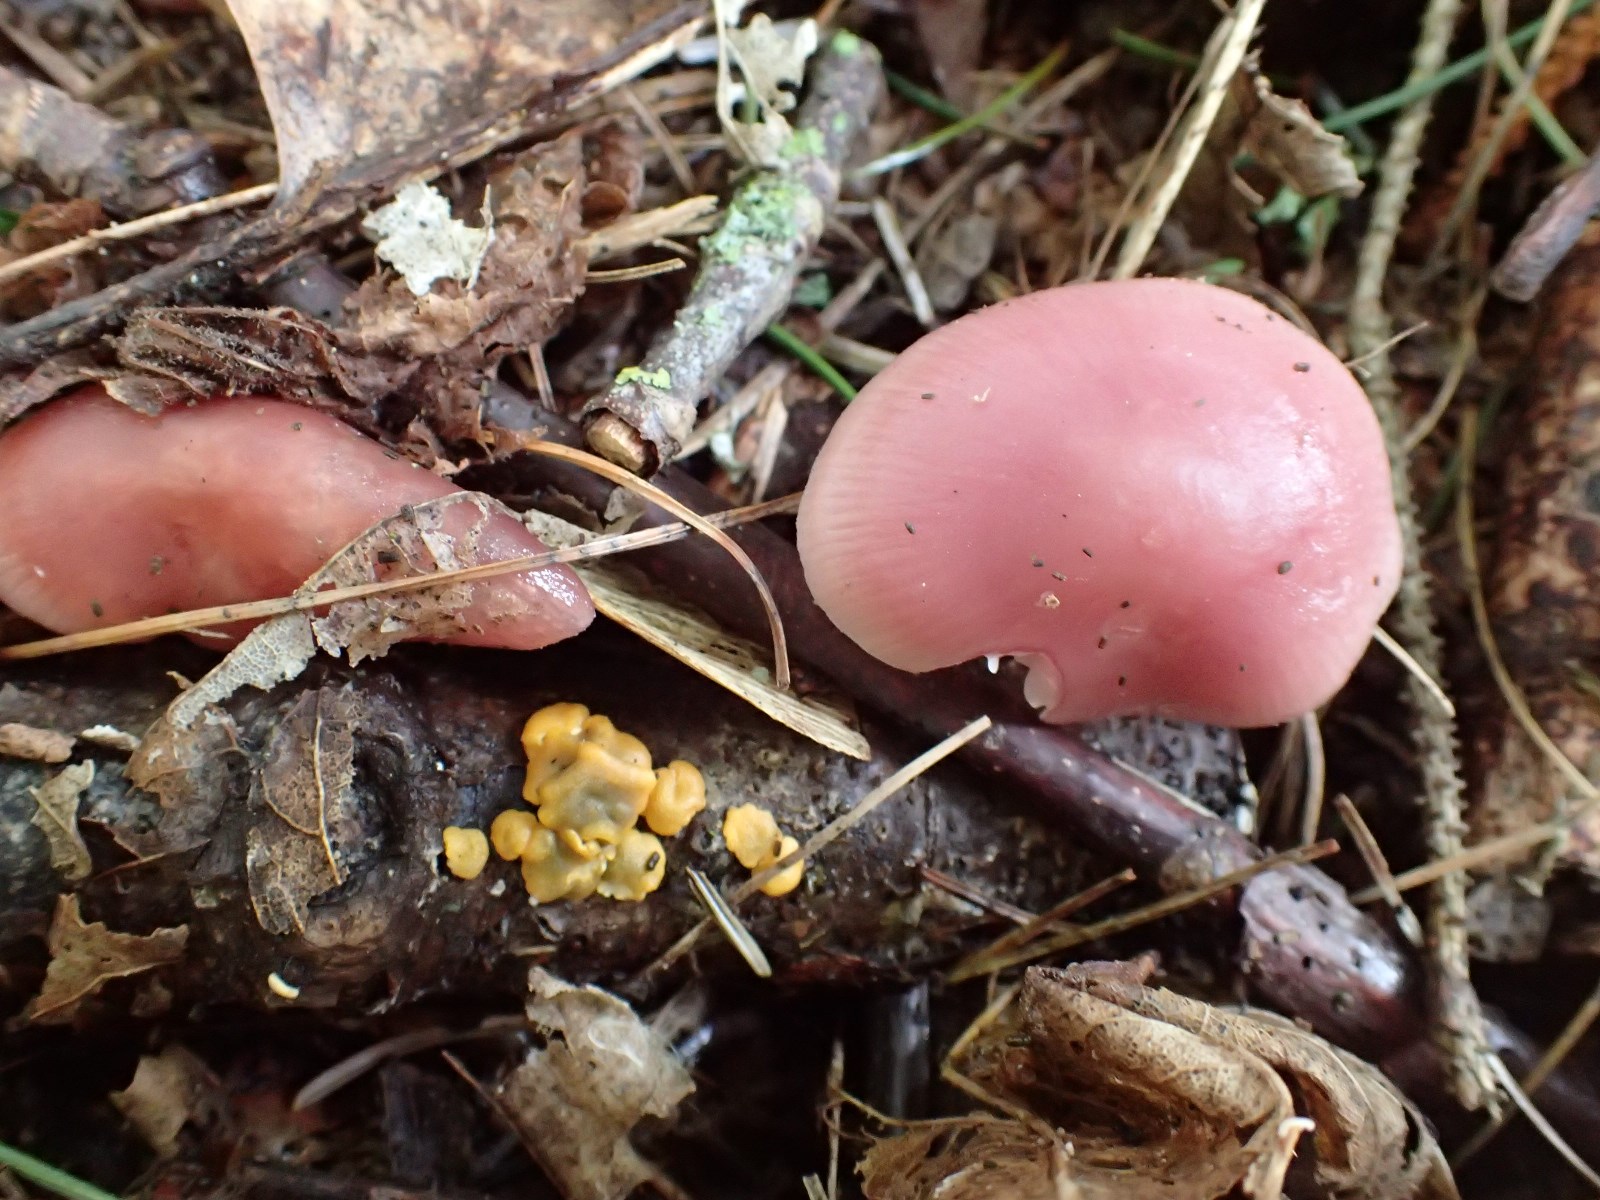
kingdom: Fungi
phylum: Basidiomycota
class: Agaricomycetes
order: Agaricales
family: Mycenaceae
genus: Mycena
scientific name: Mycena rosea
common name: rosa huesvamp
